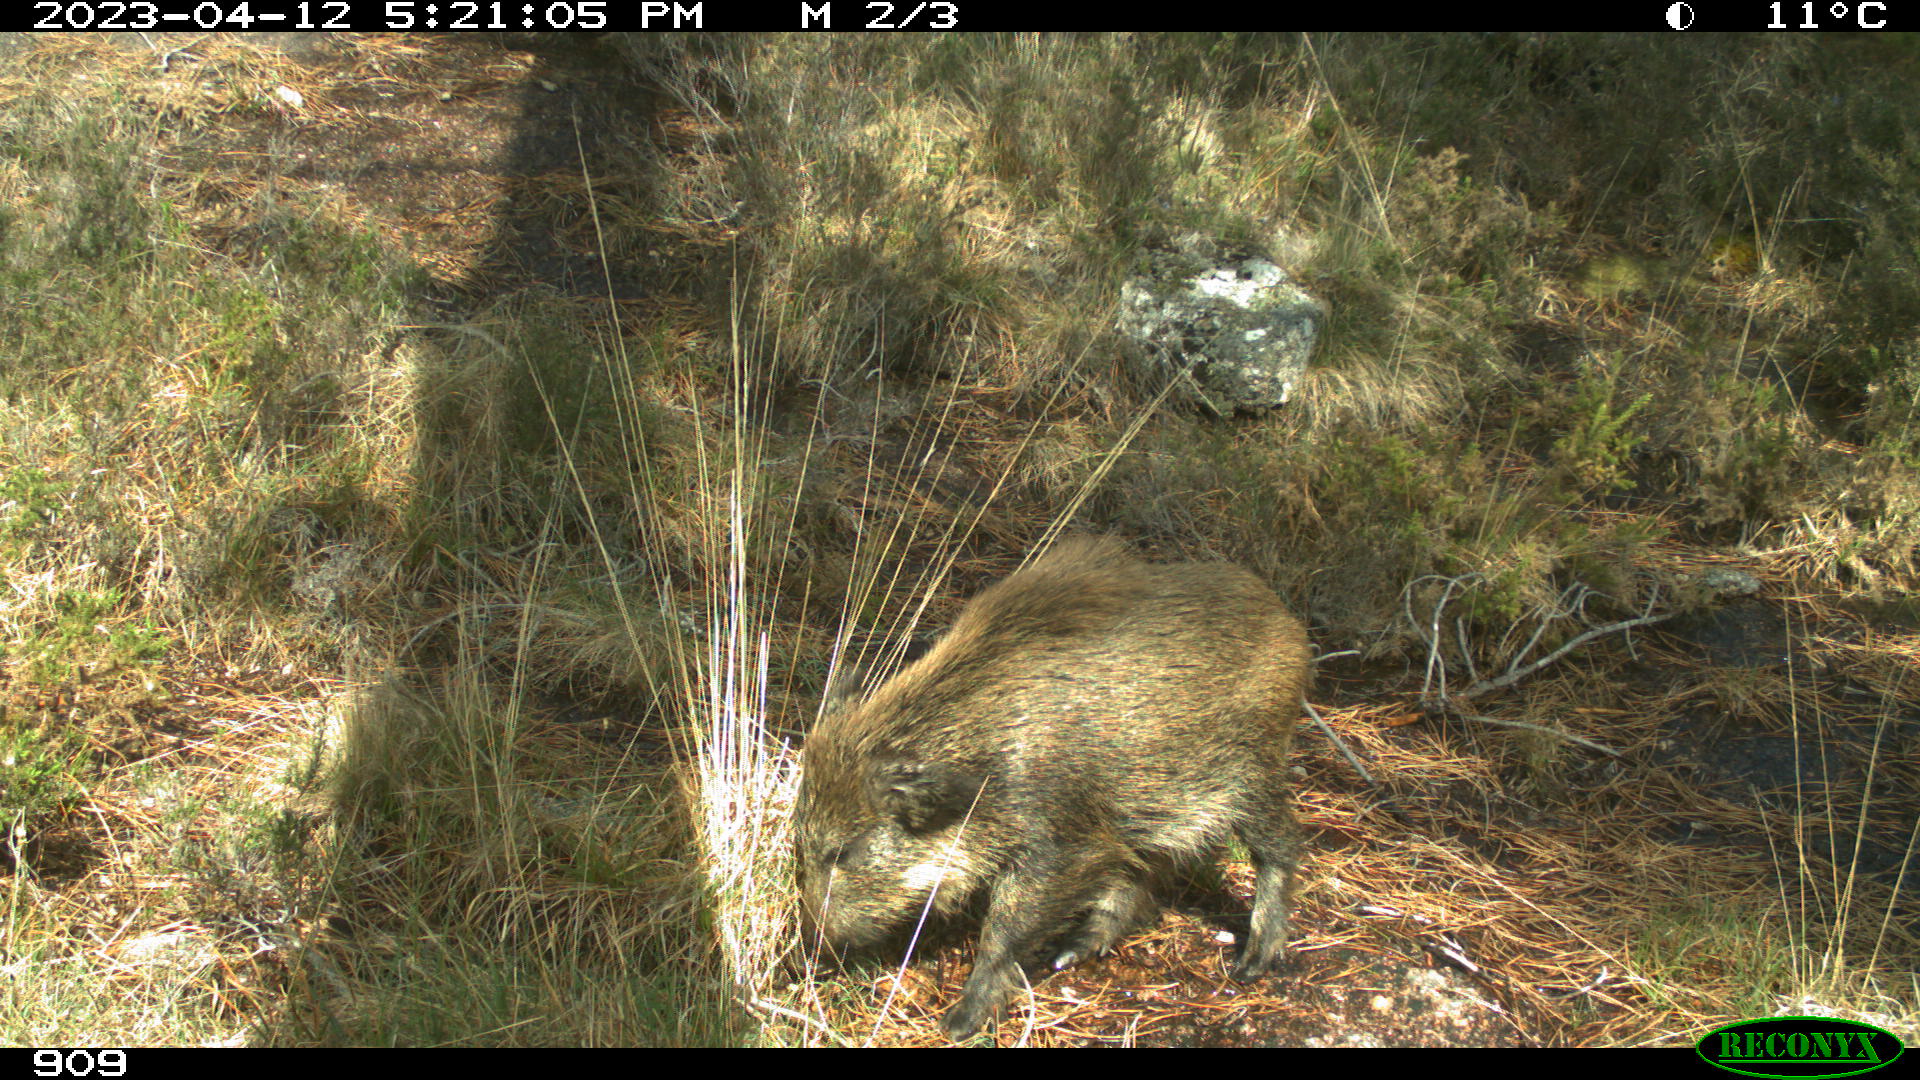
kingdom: Animalia
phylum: Chordata
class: Mammalia
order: Artiodactyla
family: Suidae
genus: Sus
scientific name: Sus scrofa
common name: Wild boar
